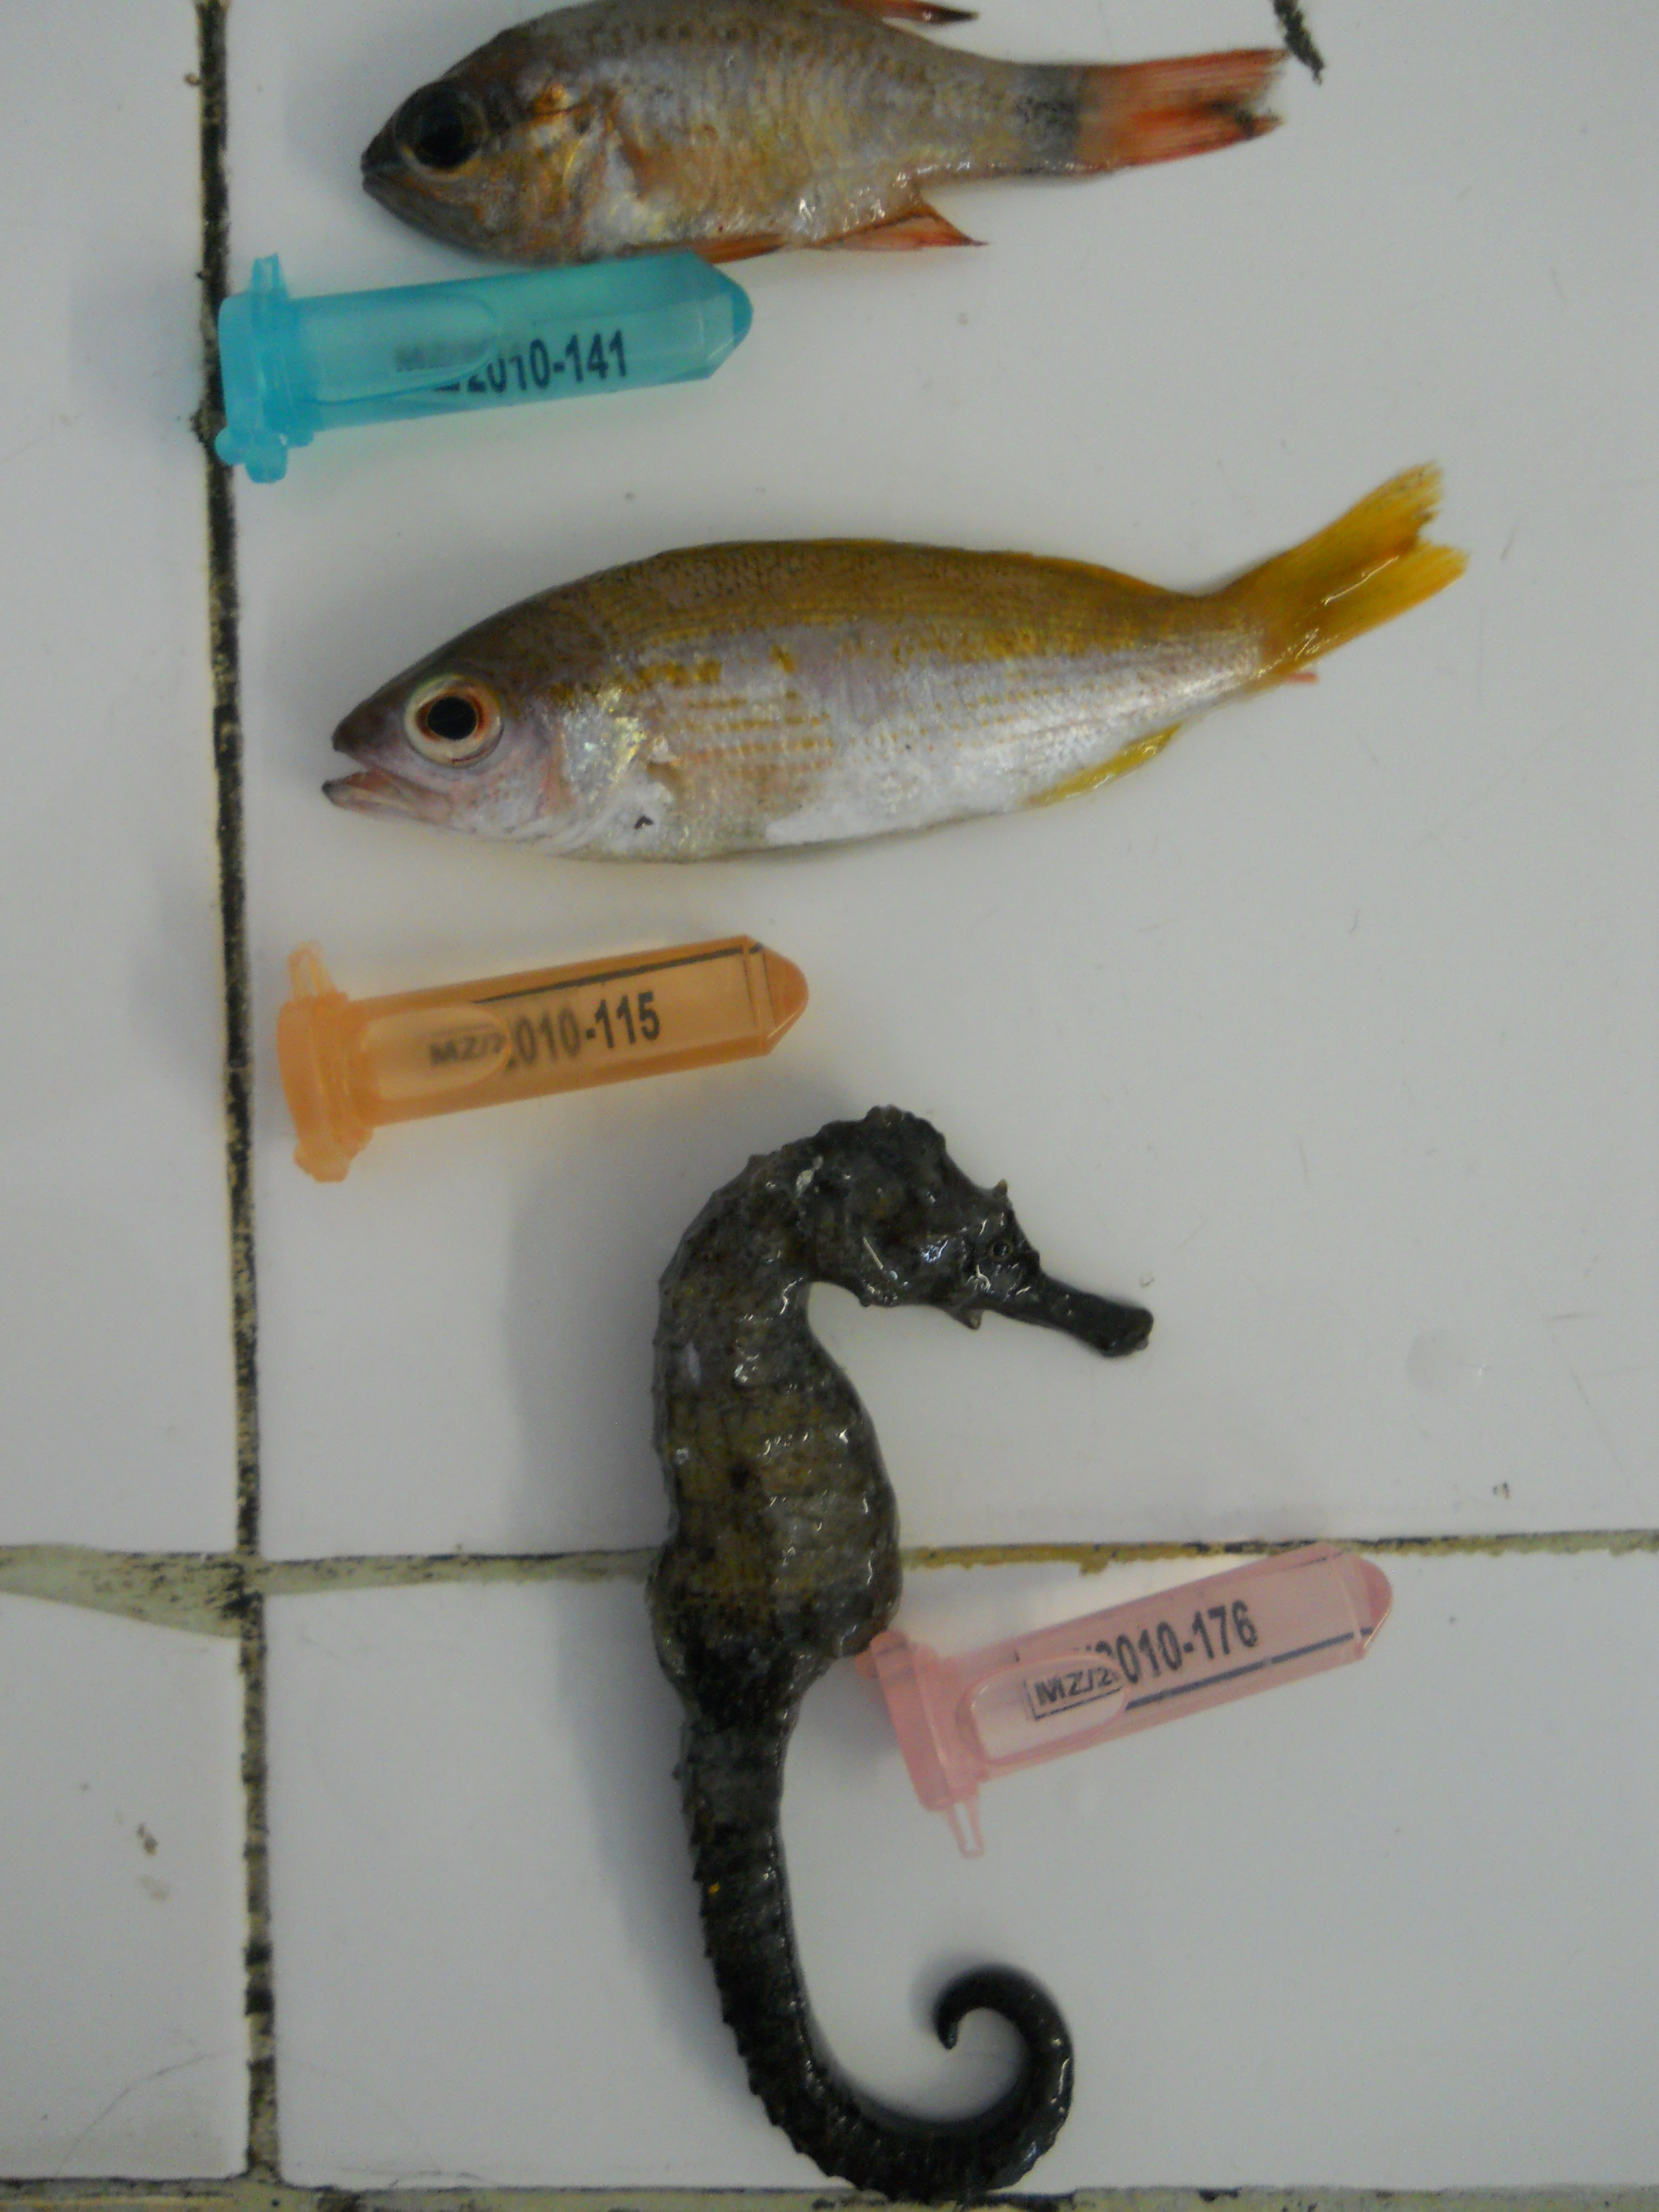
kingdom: Animalia
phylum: Chordata
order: Syngnathiformes
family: Syngnathidae
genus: Hippocampus
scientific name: Hippocampus
